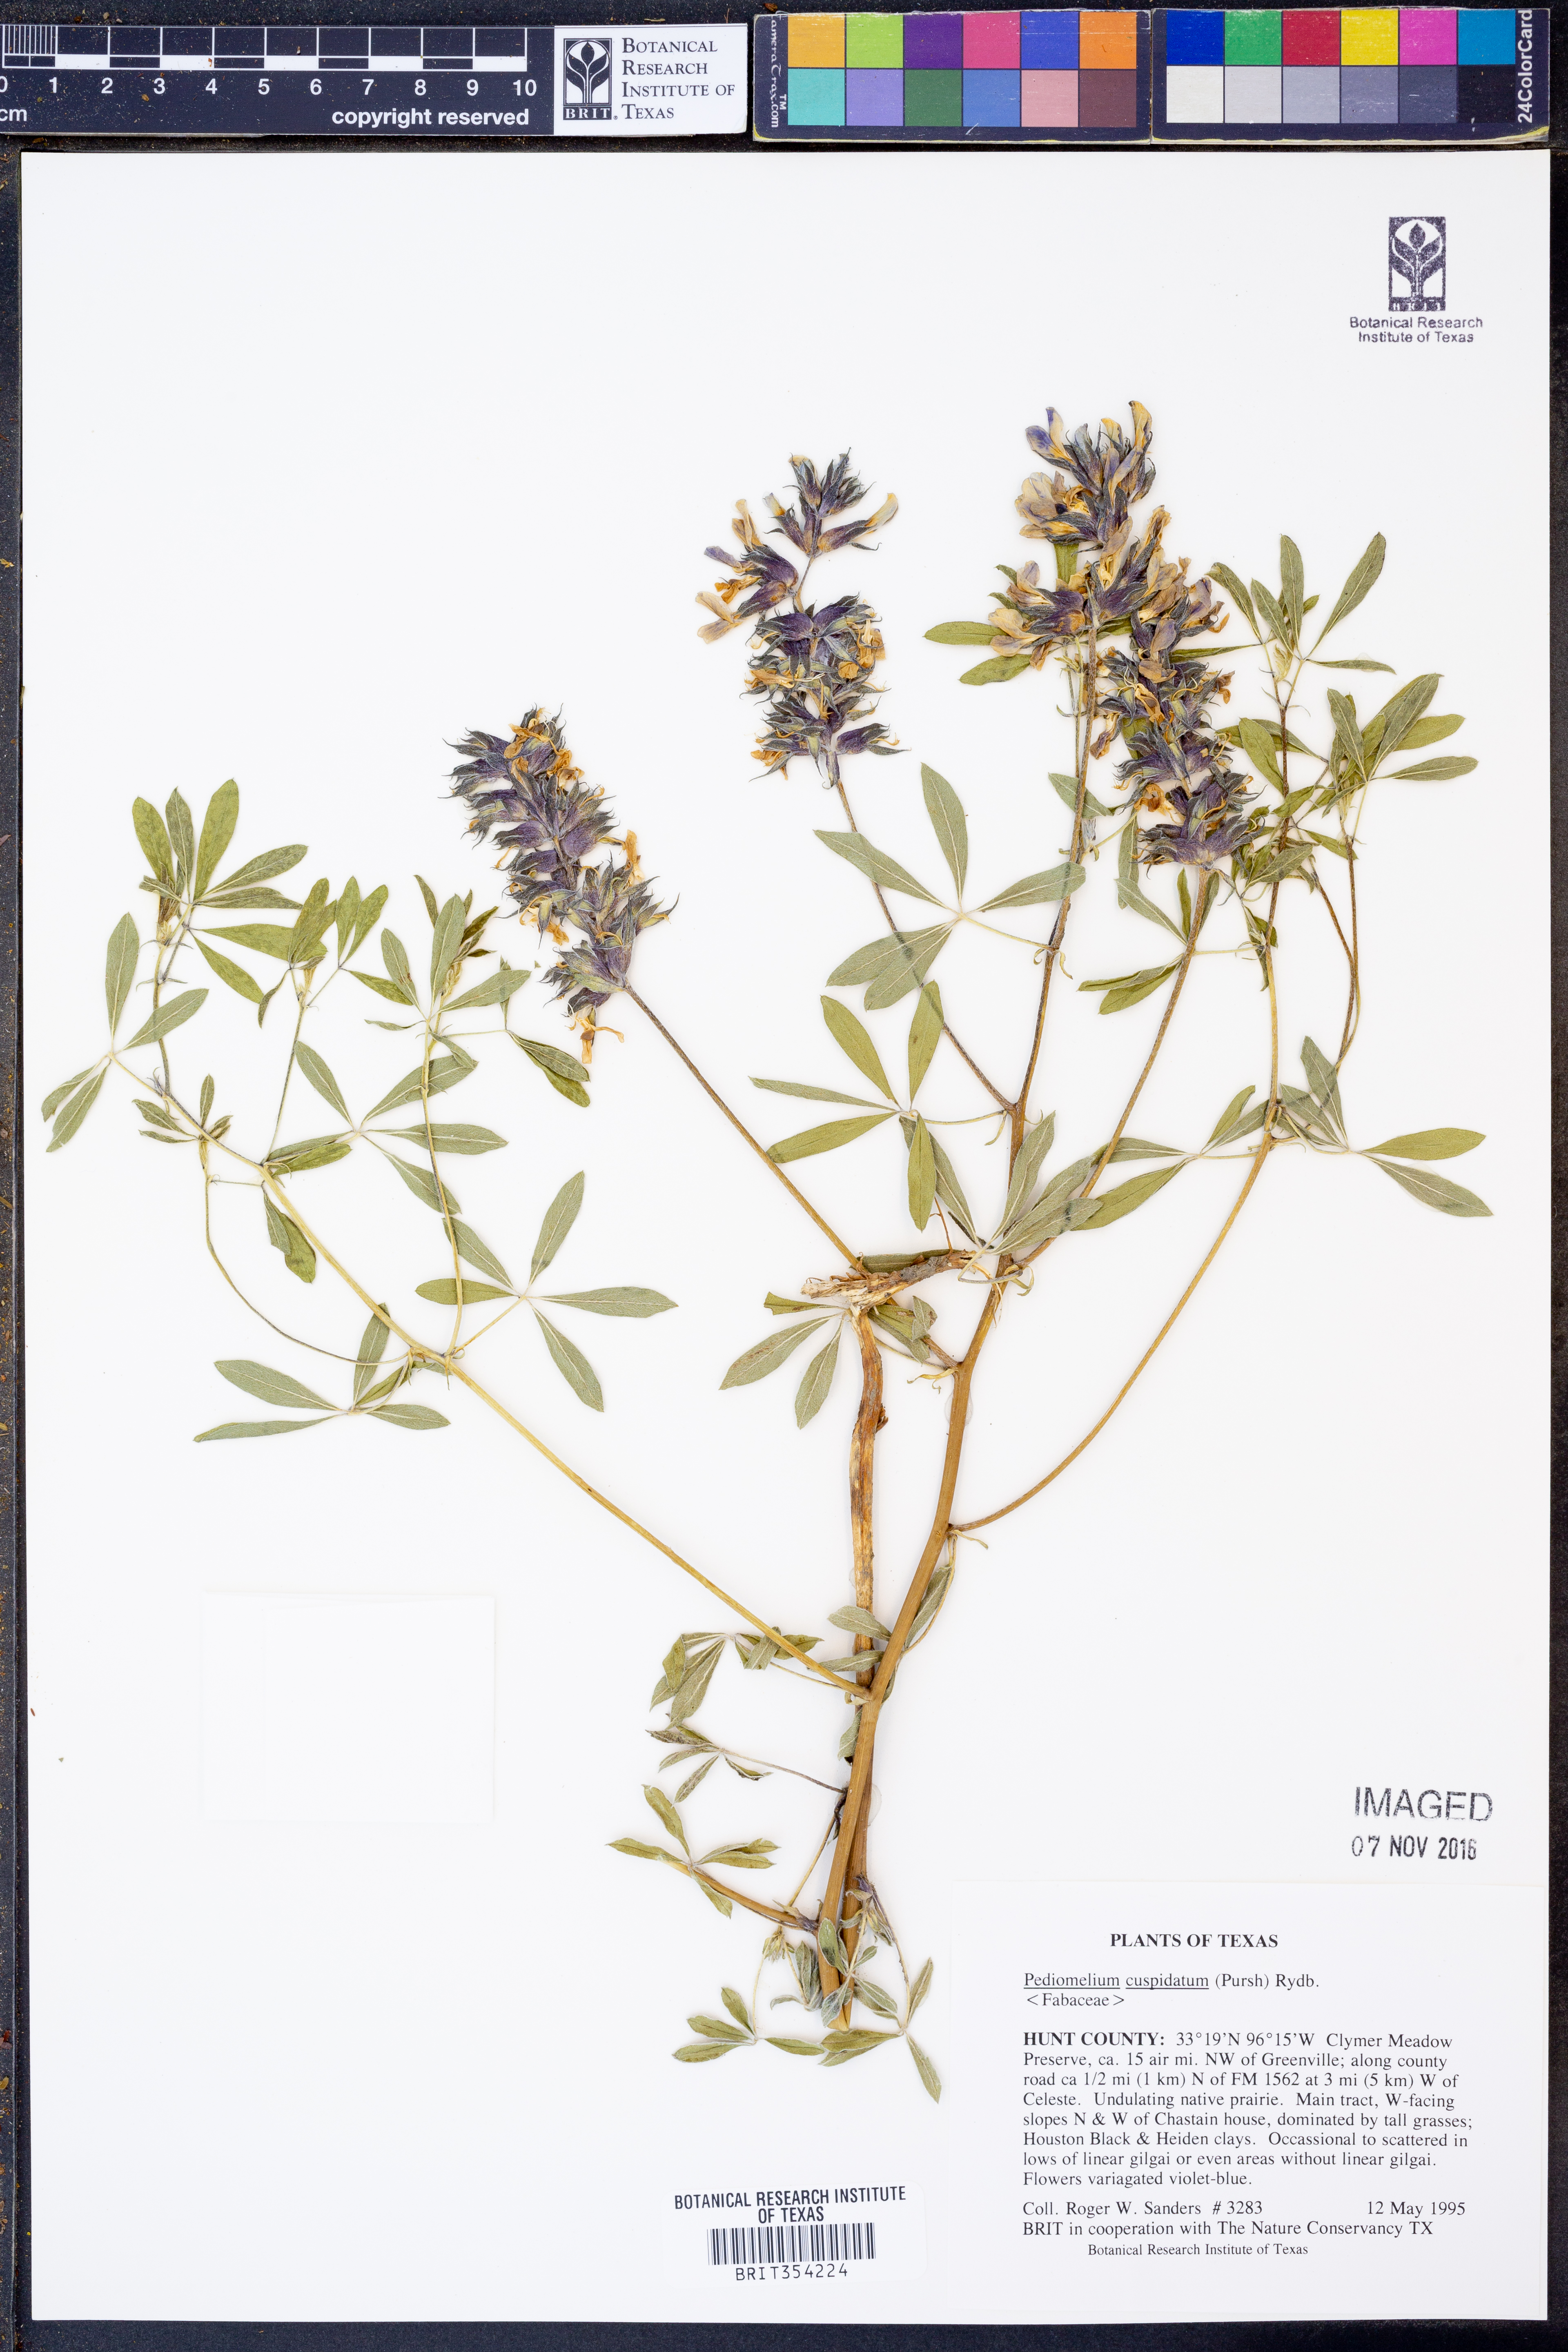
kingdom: Plantae
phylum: Tracheophyta
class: Magnoliopsida
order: Fabales
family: Fabaceae
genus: Pediomelum
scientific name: Pediomelum cuspidatum
